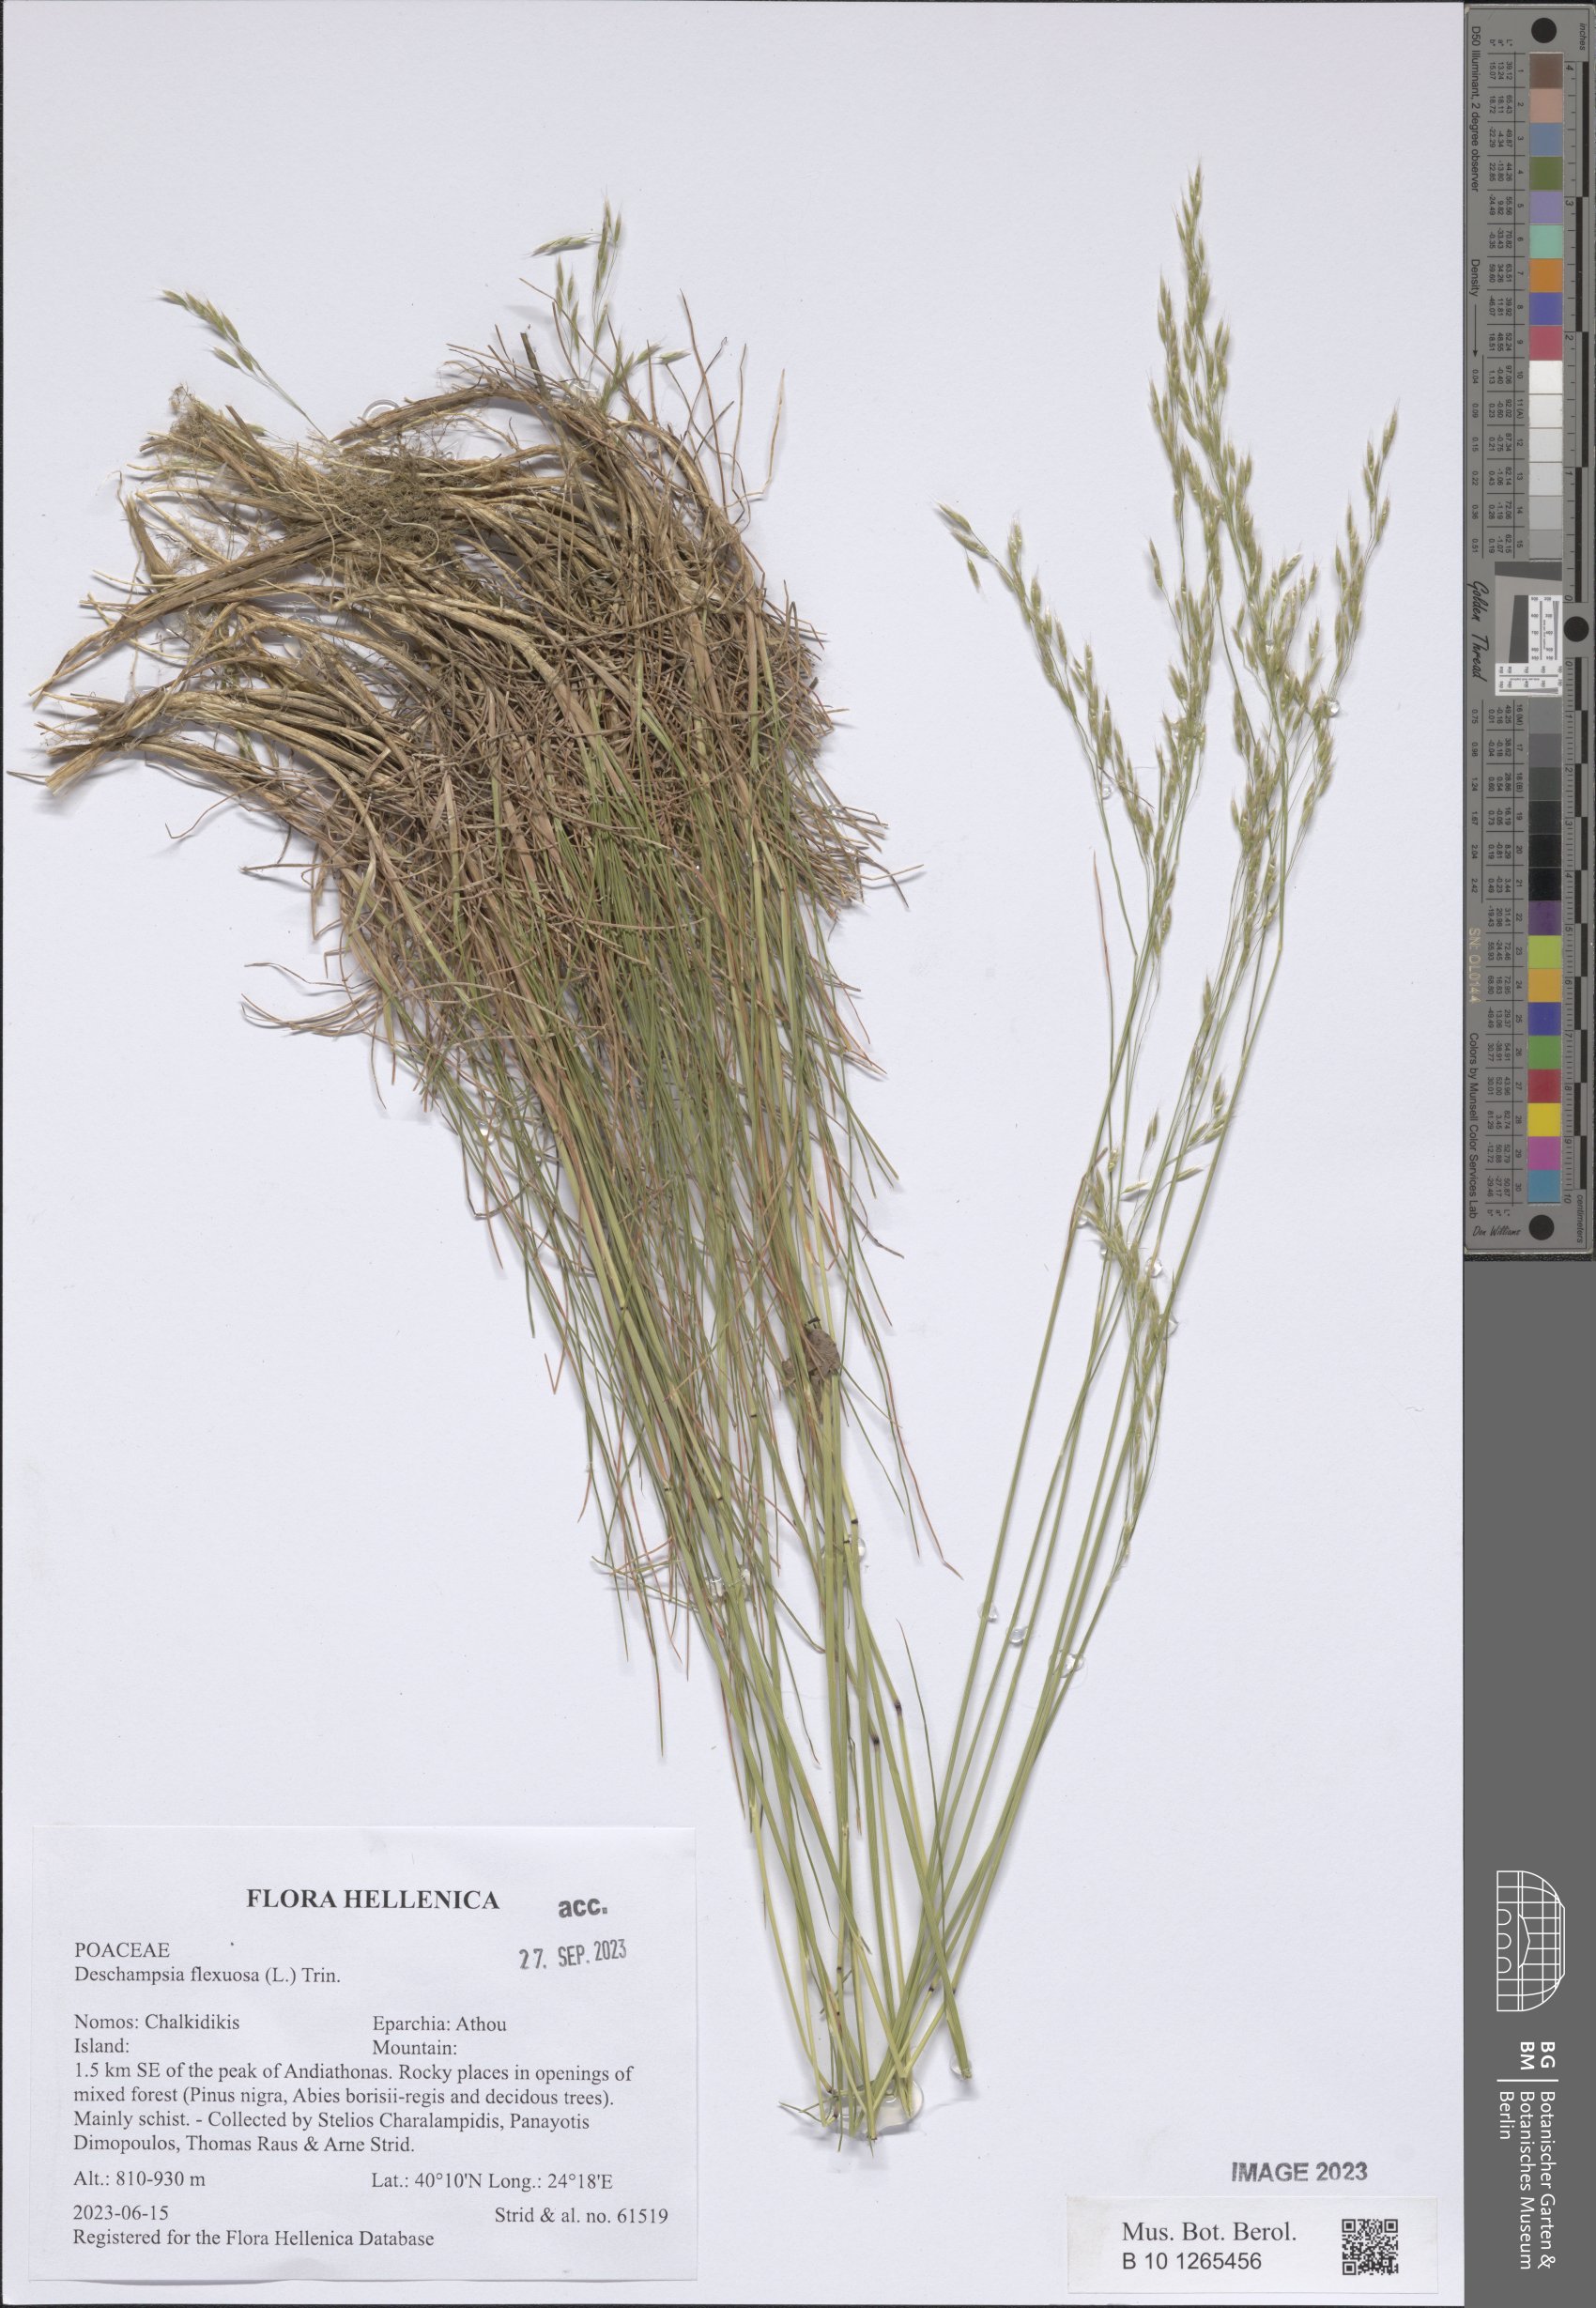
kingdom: Plantae
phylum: Tracheophyta
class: Liliopsida
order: Poales
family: Poaceae
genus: Avenella
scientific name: Avenella flexuosa
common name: Wavy hairgrass
